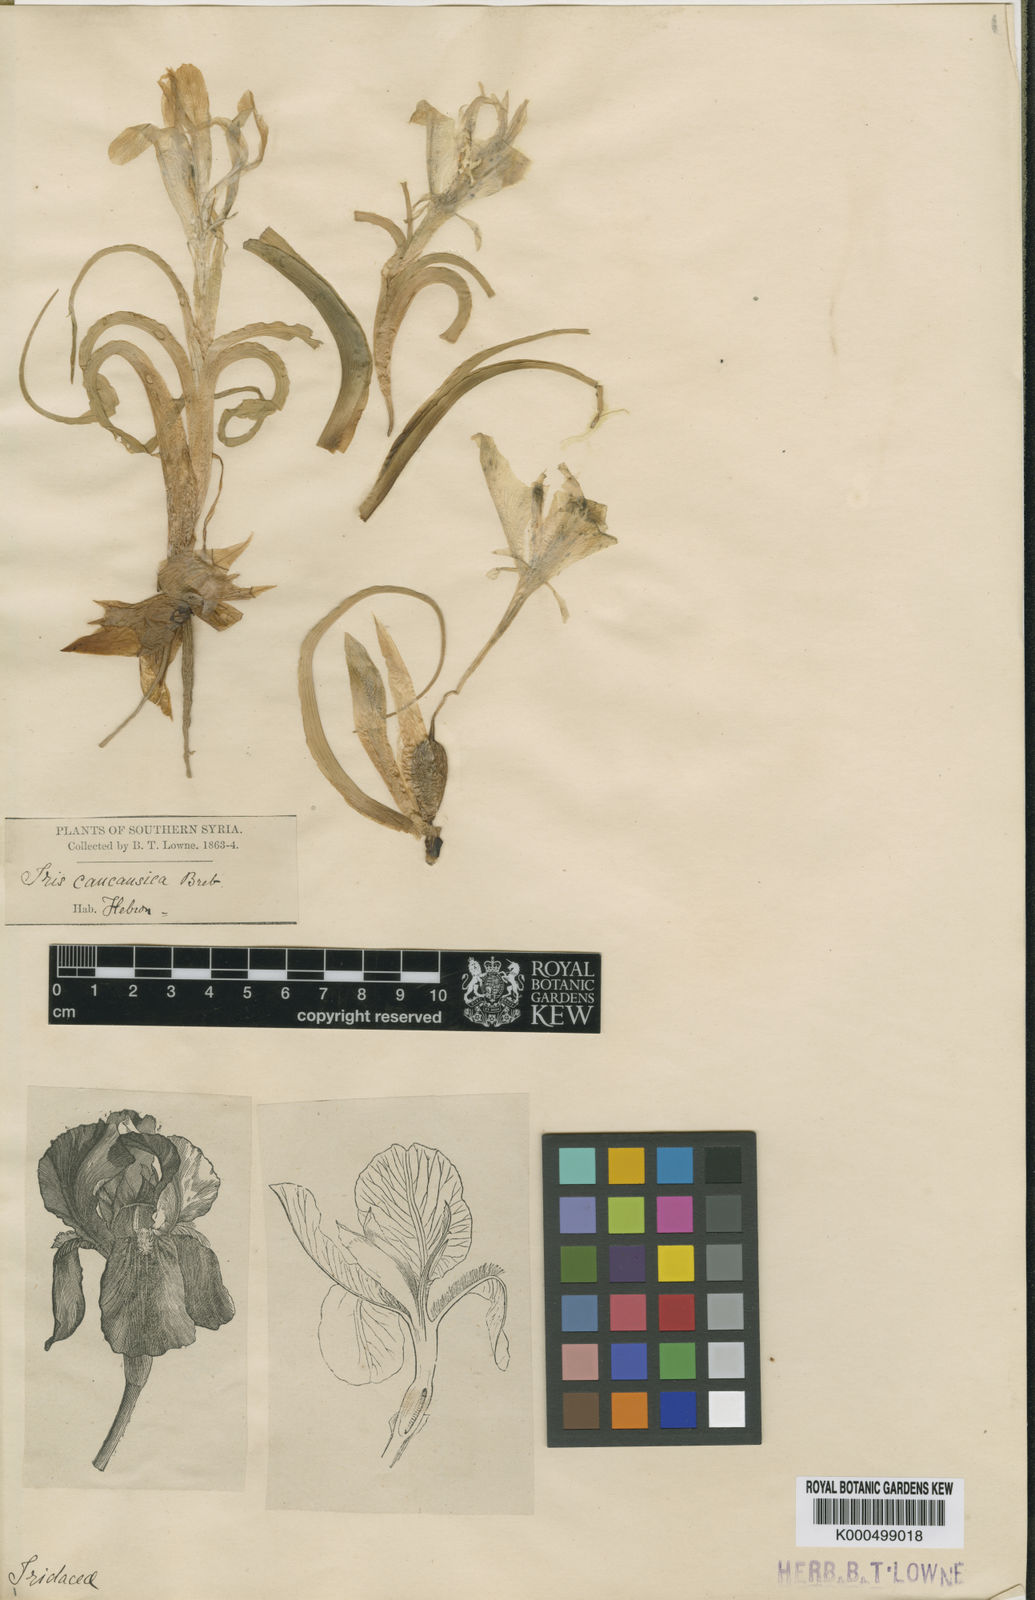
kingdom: Plantae
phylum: Tracheophyta
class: Liliopsida
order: Asparagales
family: Iridaceae
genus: Iris
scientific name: Iris
